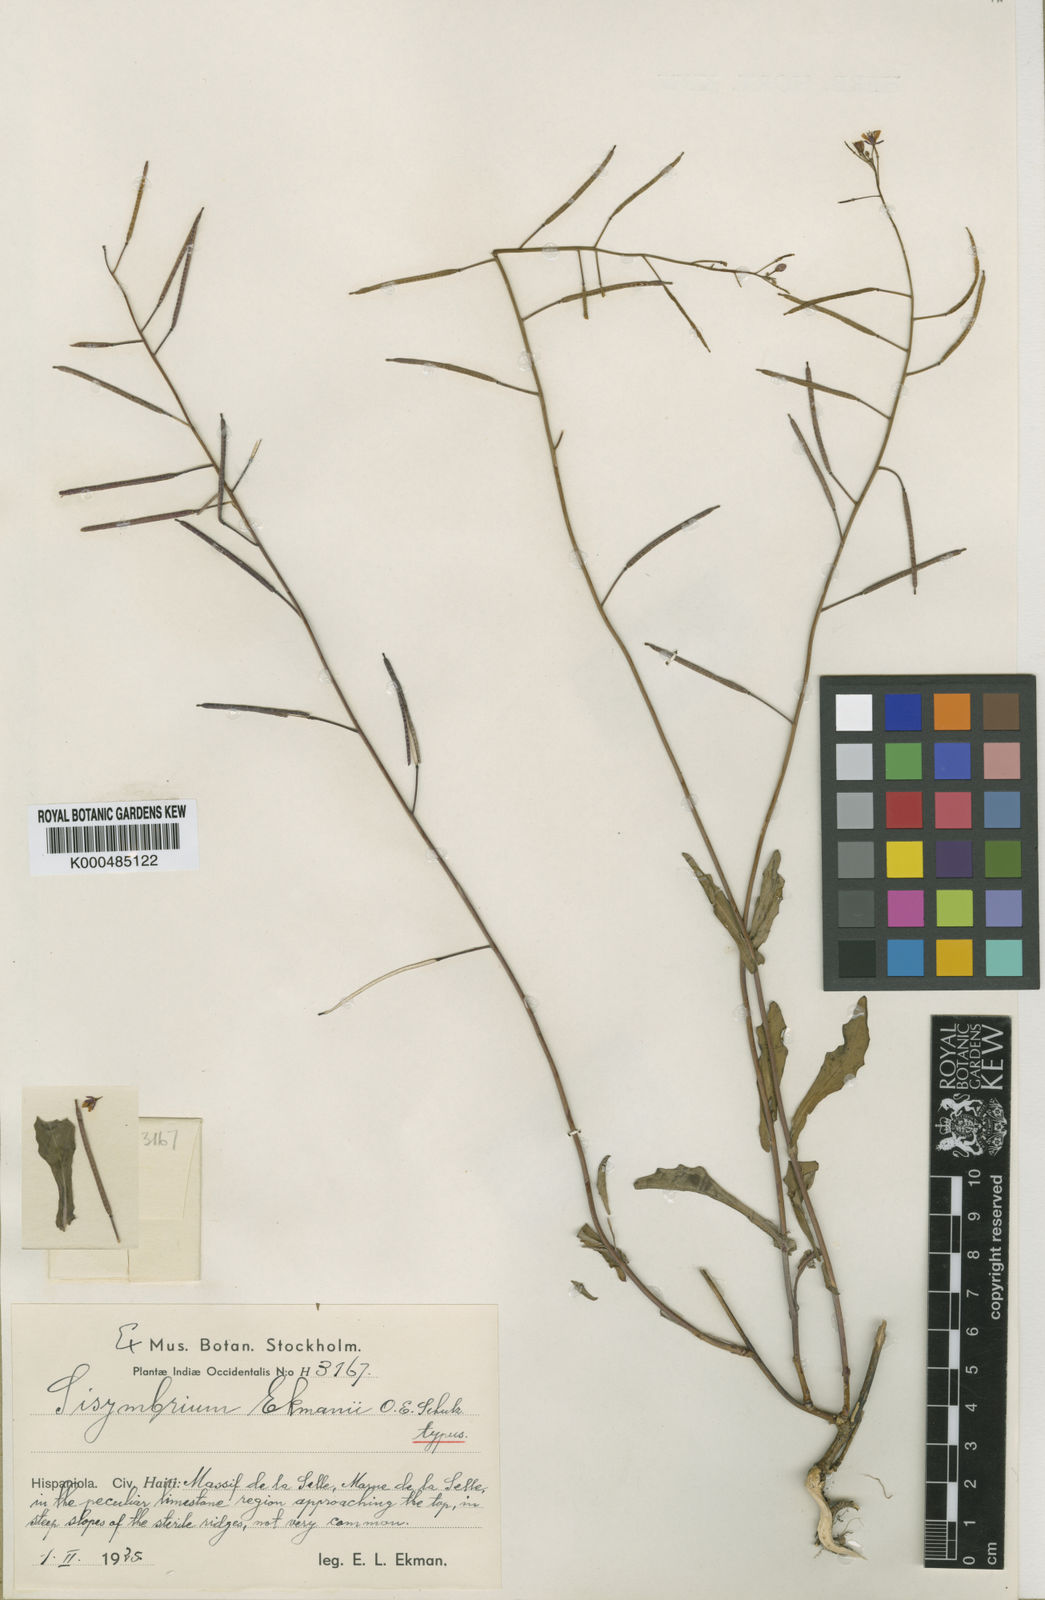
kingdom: Plantae
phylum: Tracheophyta
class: Magnoliopsida
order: Brassicales
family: Brassicaceae
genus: Mostacillastrum
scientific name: Mostacillastrum ekmanii
